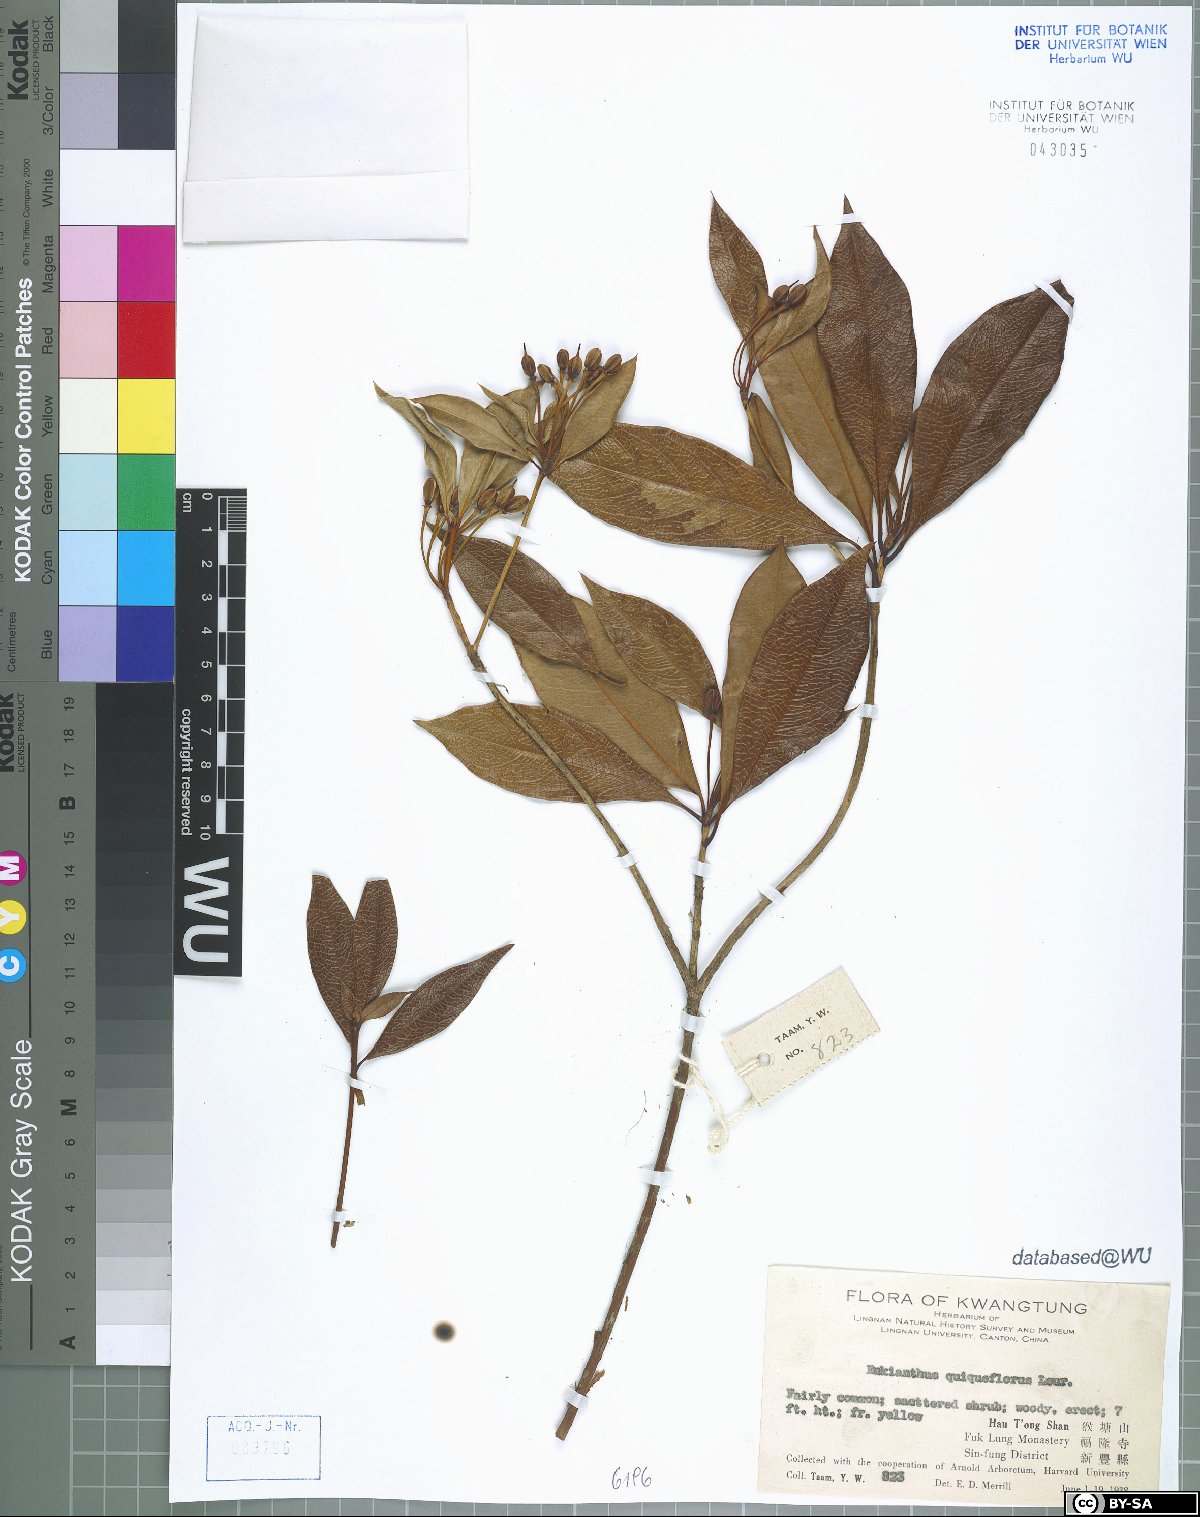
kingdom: Plantae
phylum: Tracheophyta
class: Magnoliopsida
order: Ericales
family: Ericaceae
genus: Enkianthus
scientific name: Enkianthus quinqueflorus
